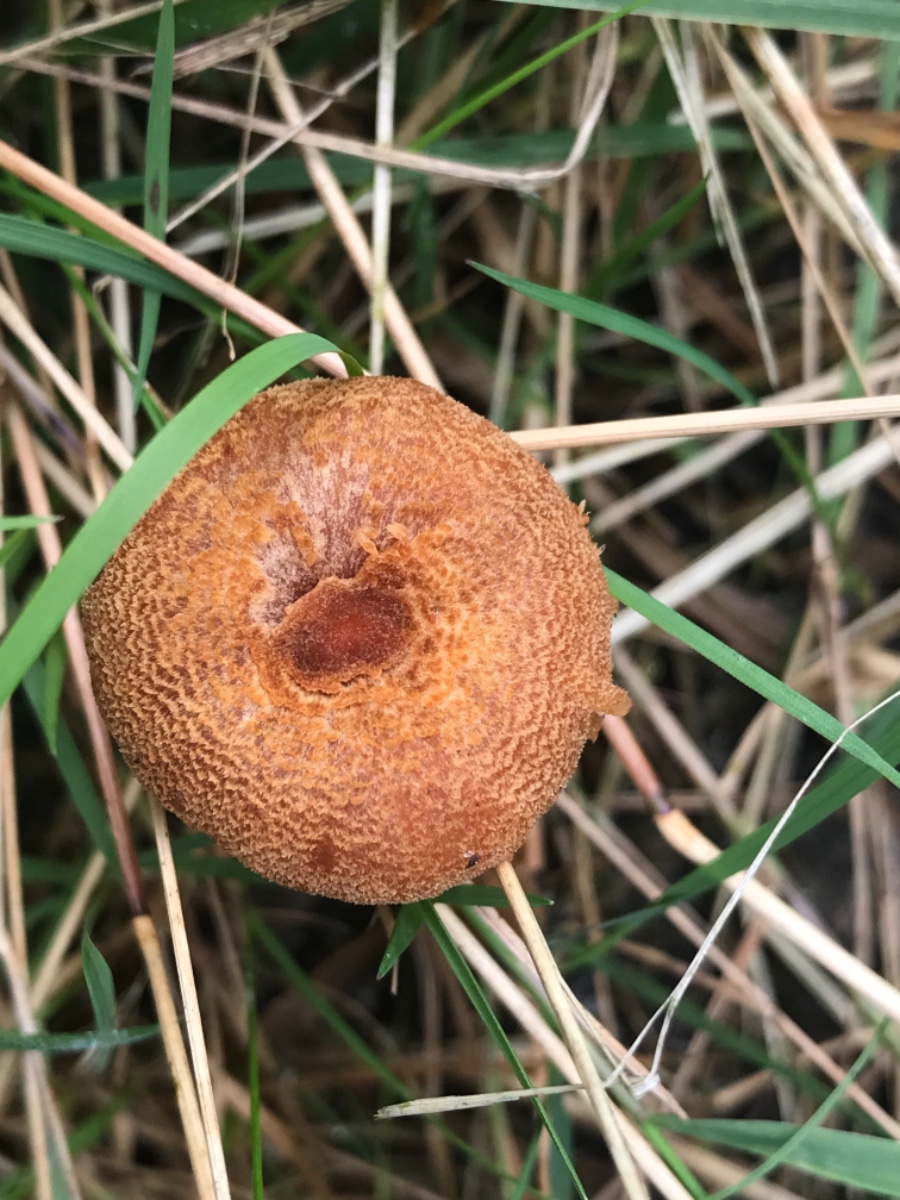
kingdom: Fungi
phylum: Basidiomycota
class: Agaricomycetes
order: Agaricales
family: Hydnangiaceae
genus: Laccaria
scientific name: Laccaria laccata
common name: rød ametysthat
